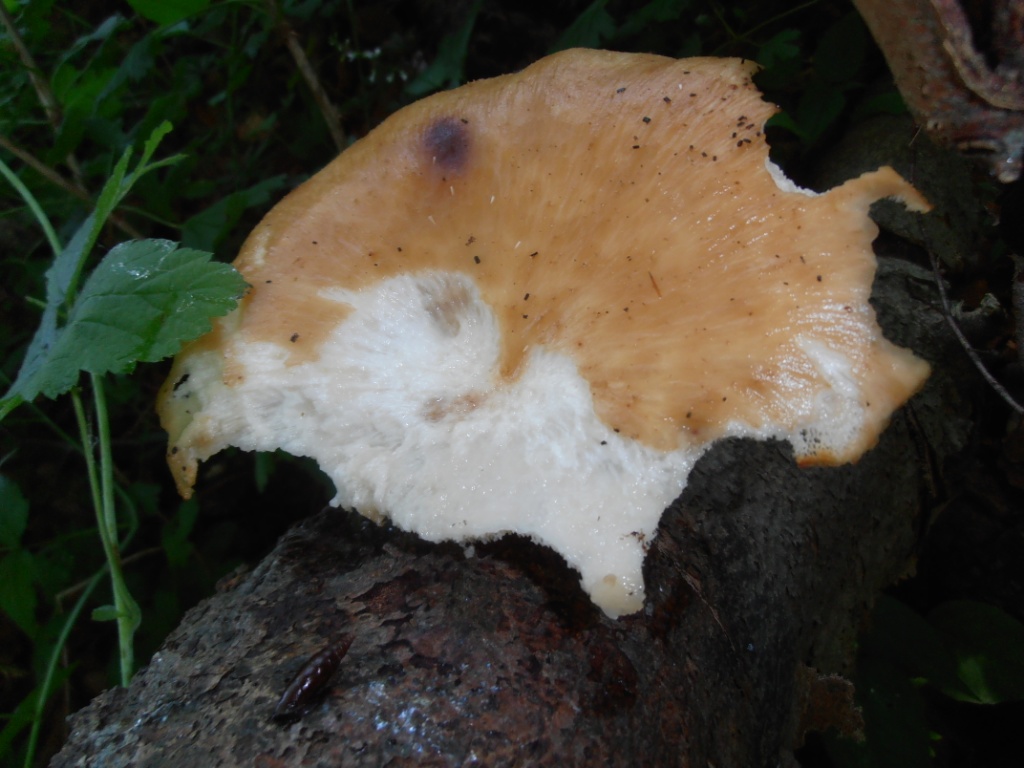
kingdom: Fungi
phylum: Basidiomycota
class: Agaricomycetes
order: Polyporales
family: Polyporaceae
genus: Polyporus
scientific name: Polyporus tuberaster
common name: knoldet stilkporesvamp
